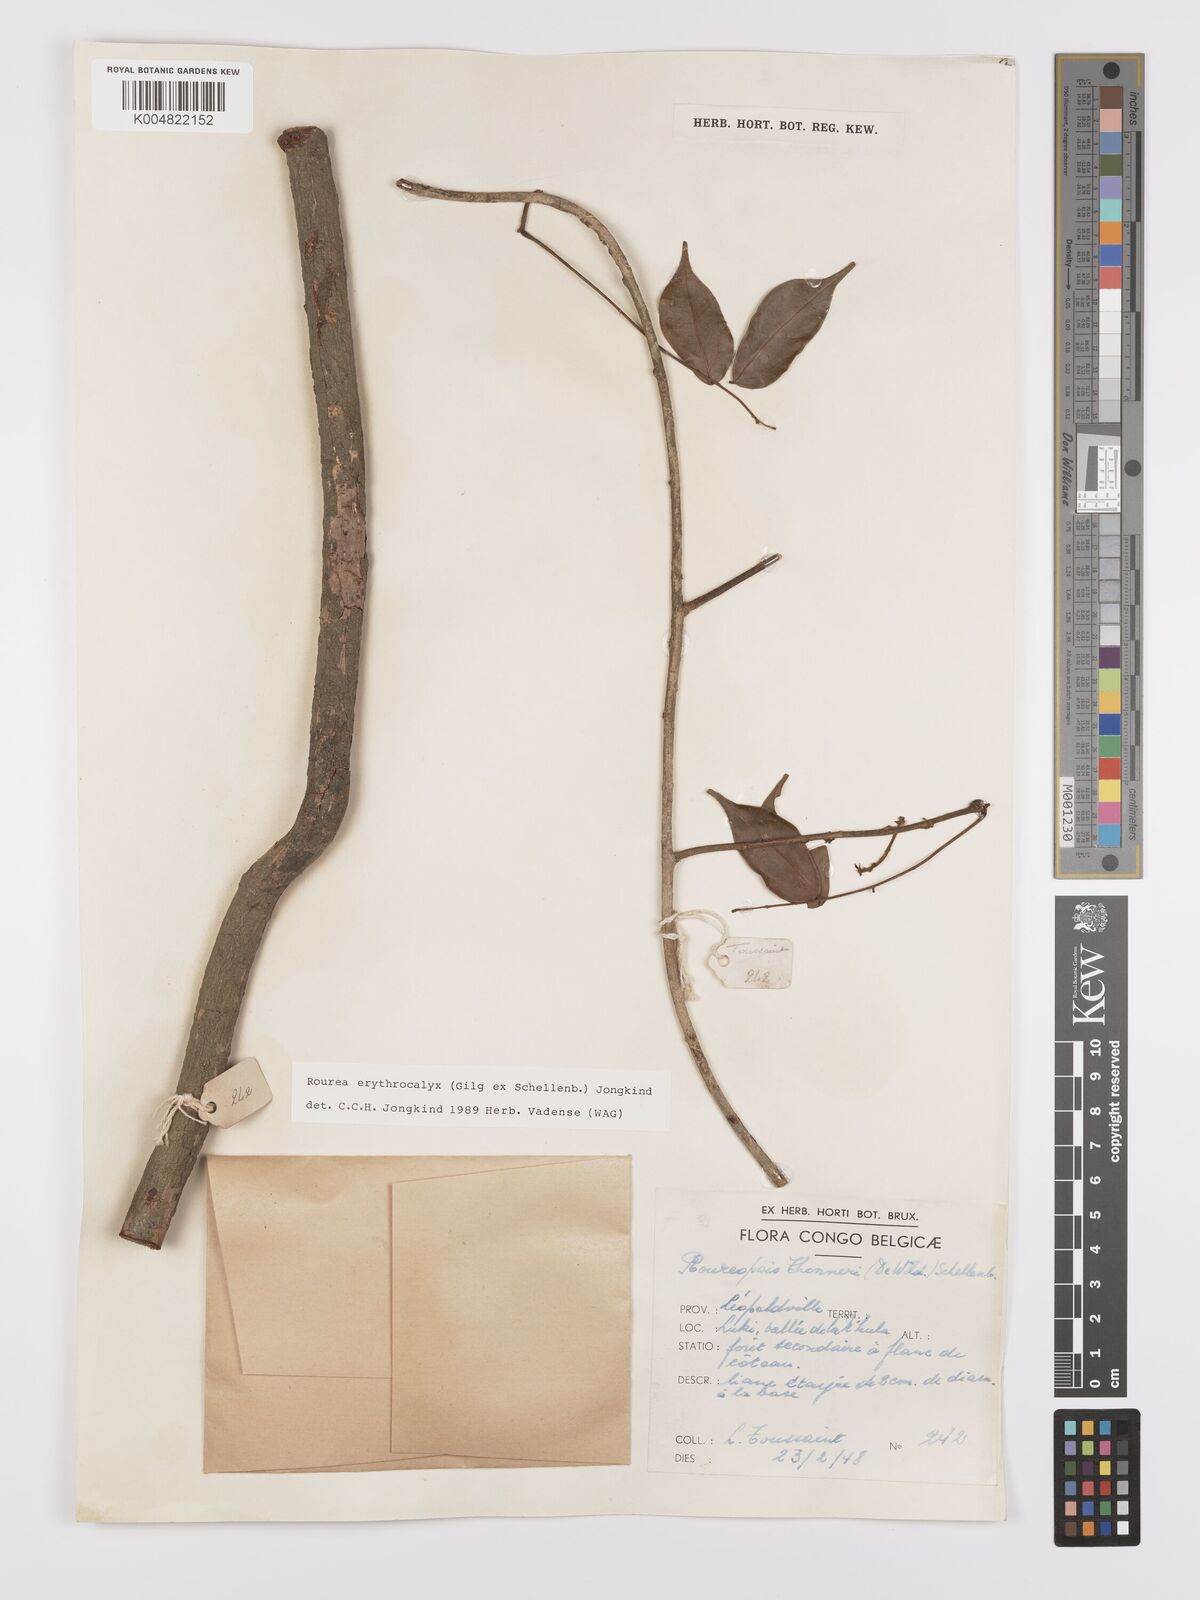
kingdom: Plantae
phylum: Tracheophyta
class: Magnoliopsida
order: Oxalidales
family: Connaraceae
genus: Rourea
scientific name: Rourea erythrocalyx
